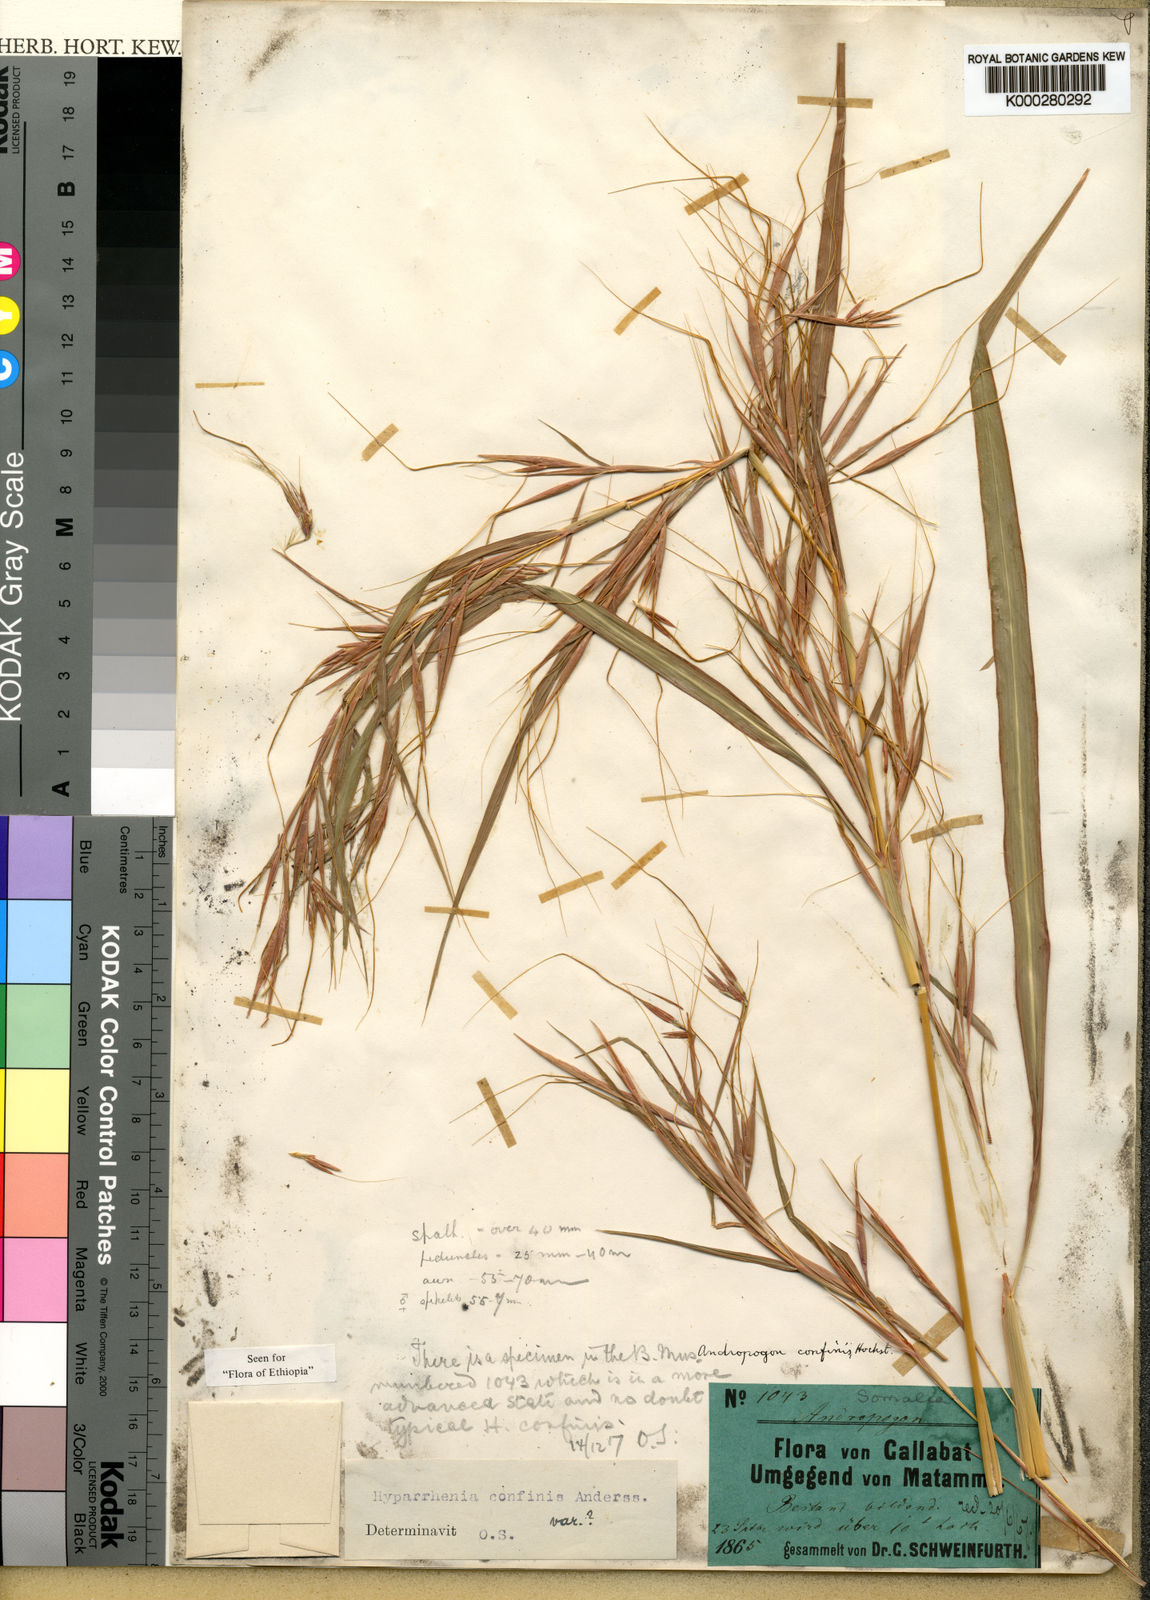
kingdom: Plantae
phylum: Tracheophyta
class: Liliopsida
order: Poales
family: Poaceae
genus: Hyparrhenia
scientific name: Hyparrhenia confinis
